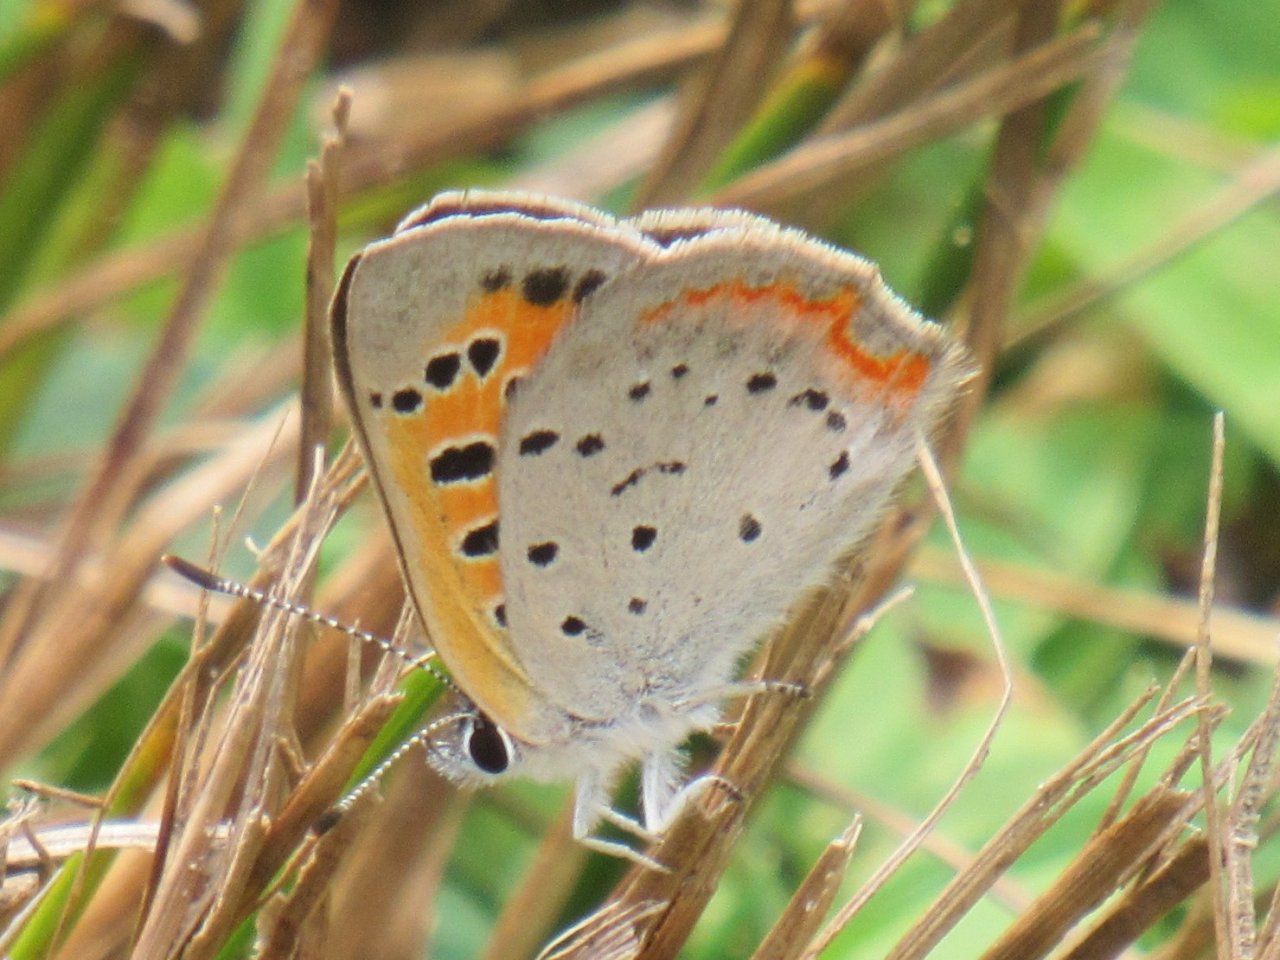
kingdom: Animalia
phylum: Arthropoda
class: Insecta
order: Lepidoptera
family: Lycaenidae
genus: Lycaena
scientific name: Lycaena phlaeas
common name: American Copper
